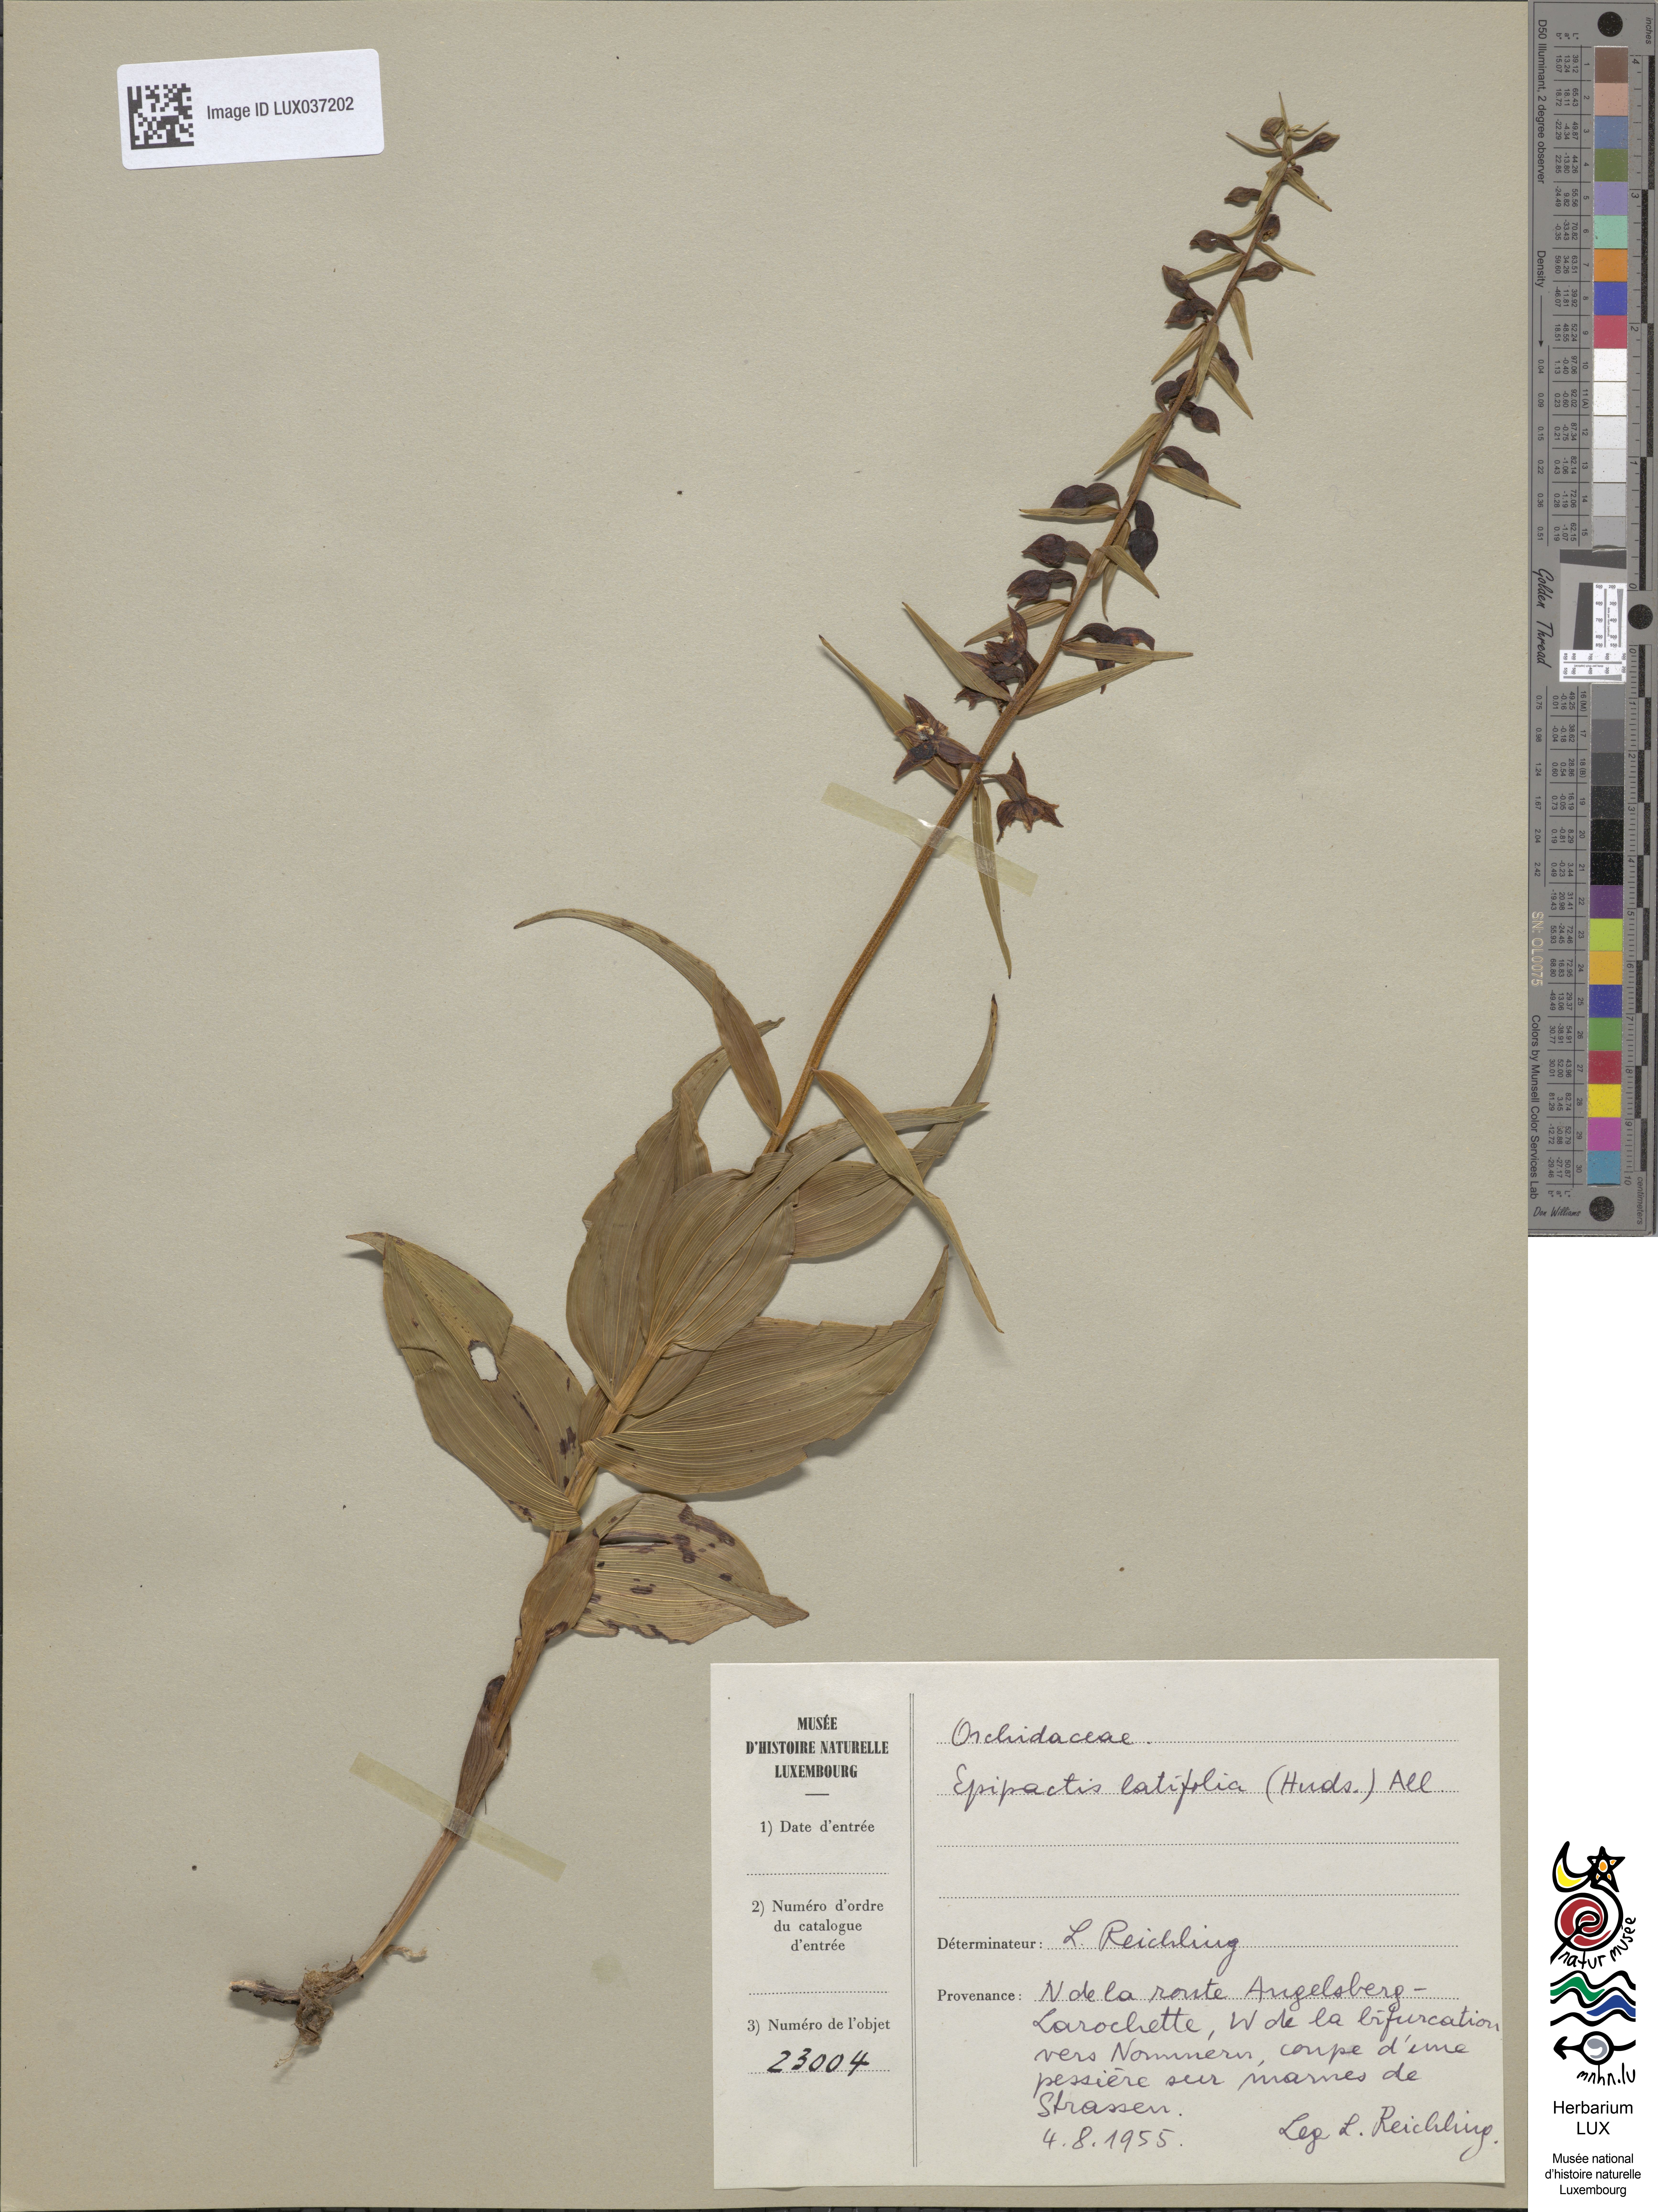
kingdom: Plantae
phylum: Tracheophyta
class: Liliopsida
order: Asparagales
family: Orchidaceae
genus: Epipactis
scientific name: Epipactis helleborine
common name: Broad-leaved helleborine
